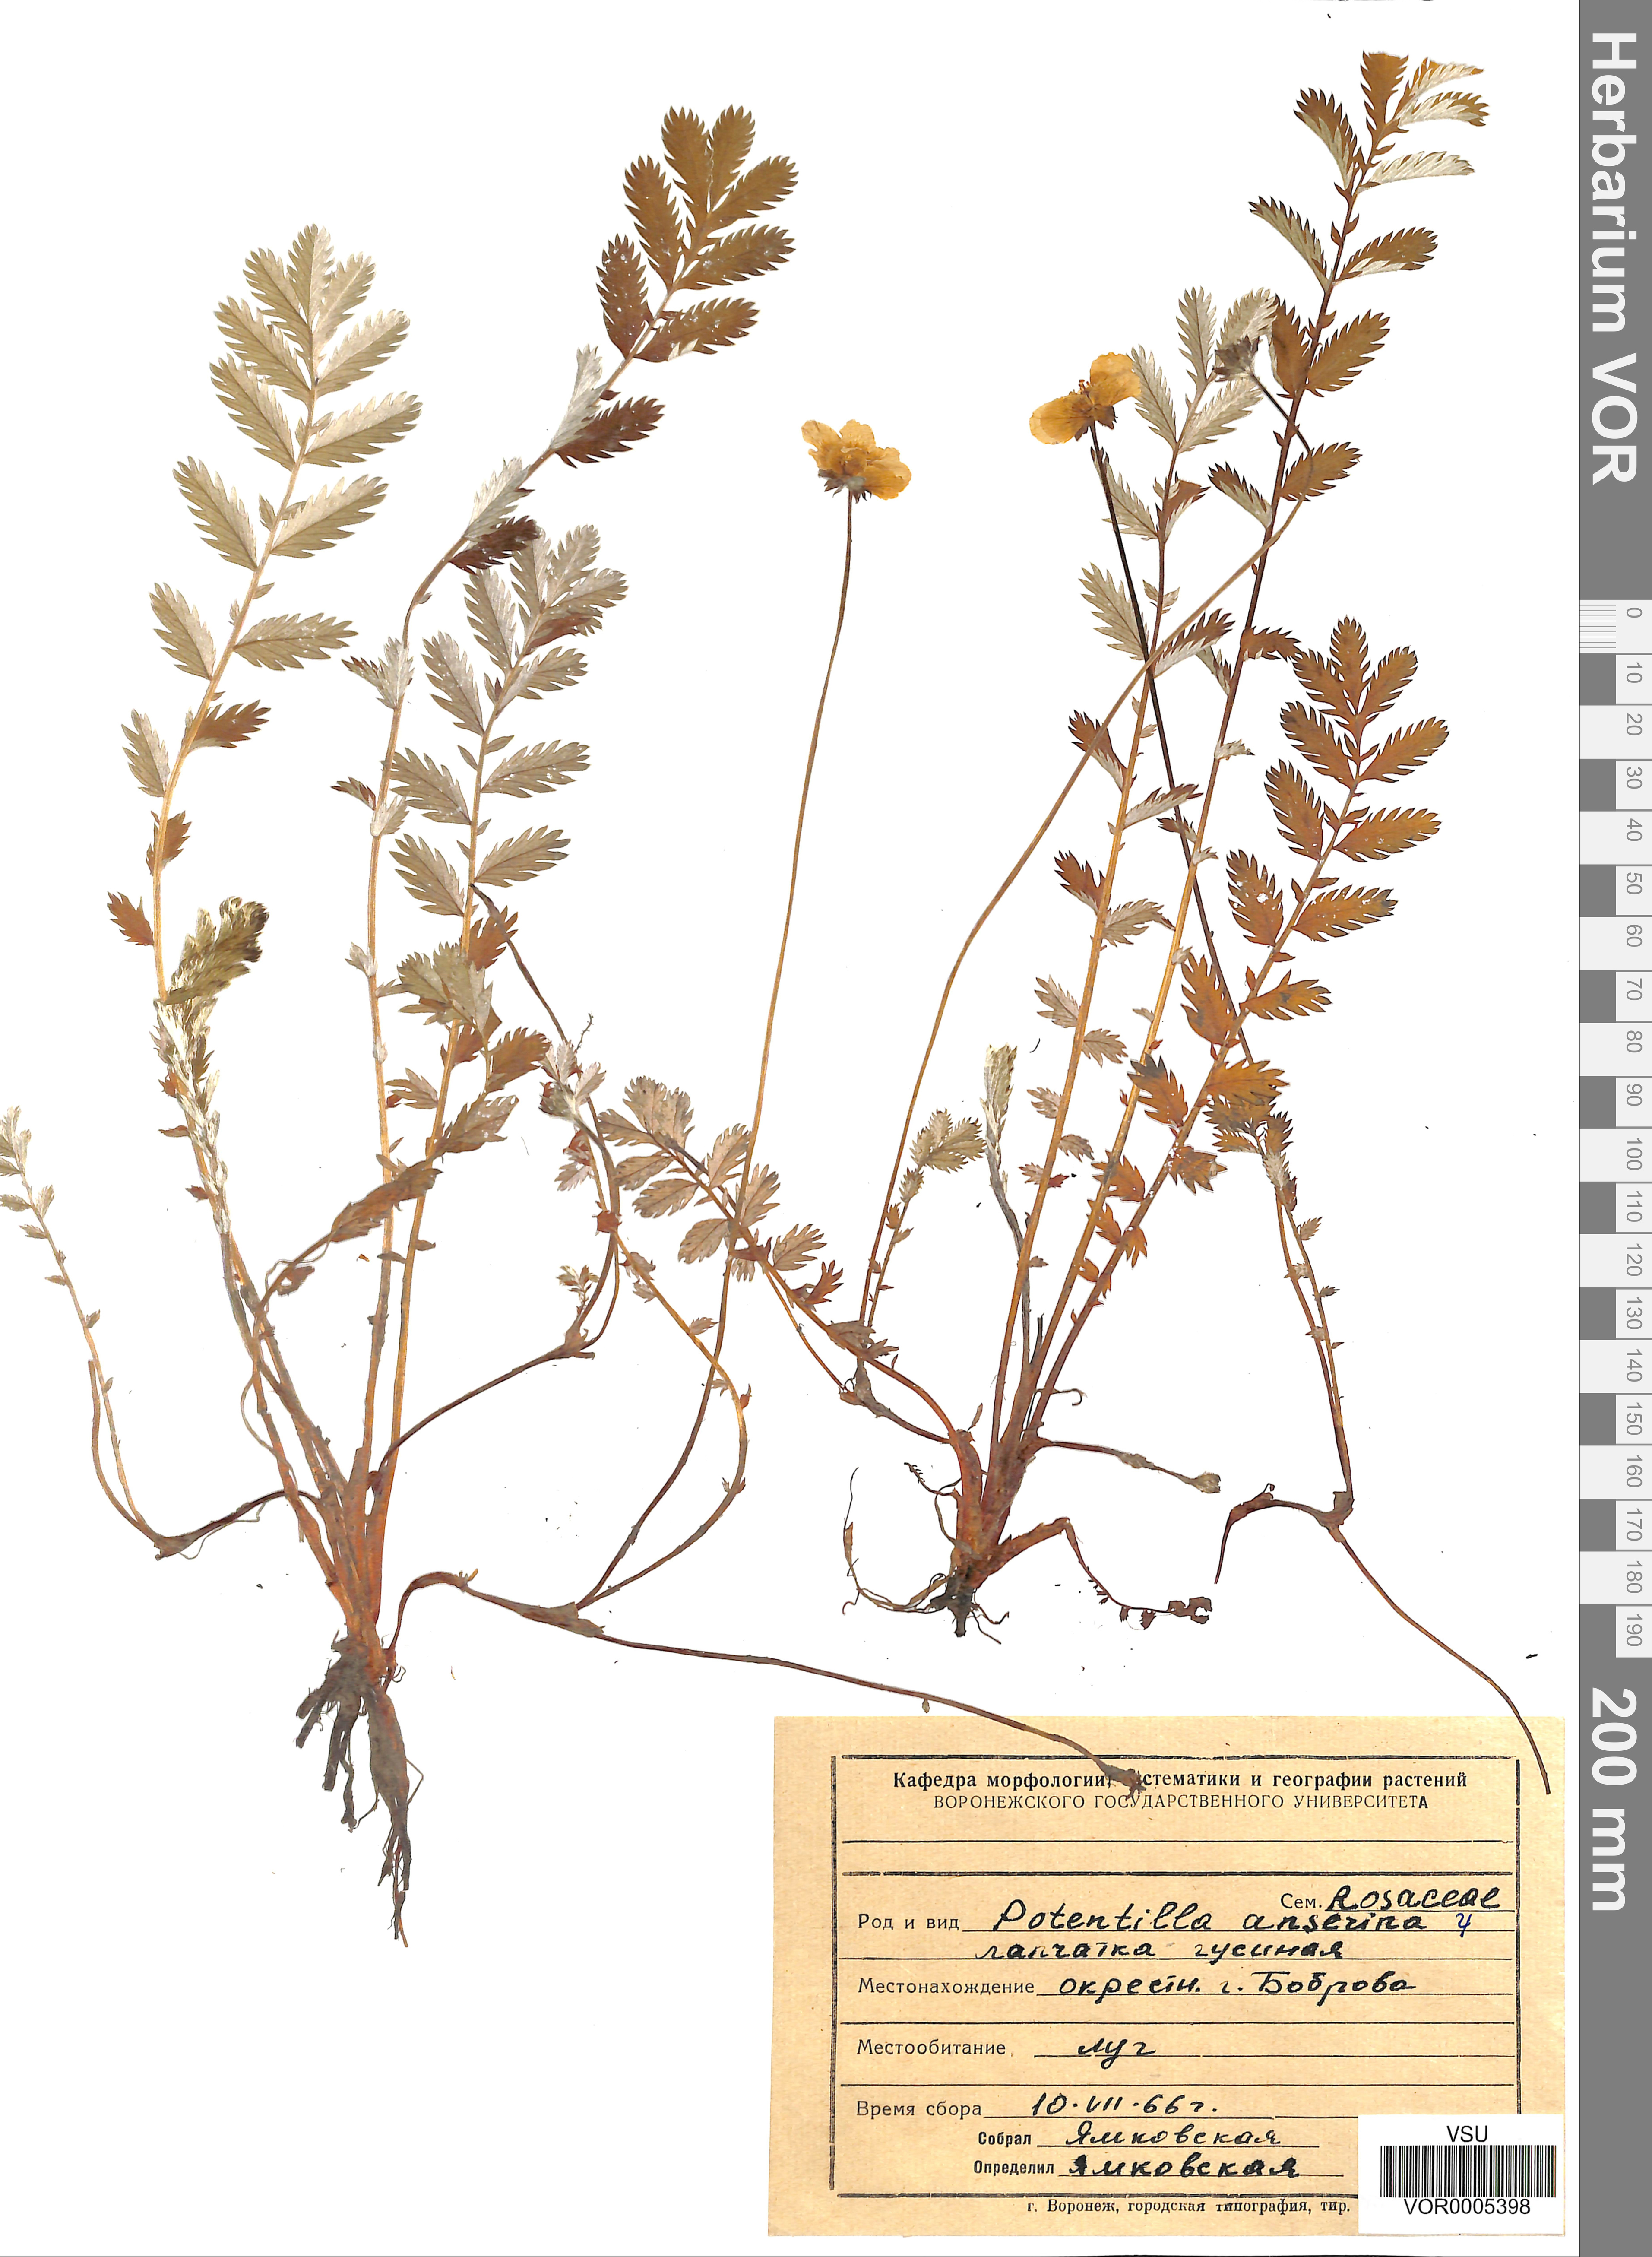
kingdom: Plantae
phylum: Tracheophyta
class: Magnoliopsida
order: Rosales
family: Rosaceae
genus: Argentina
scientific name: Argentina anserina
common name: Common silverweed
